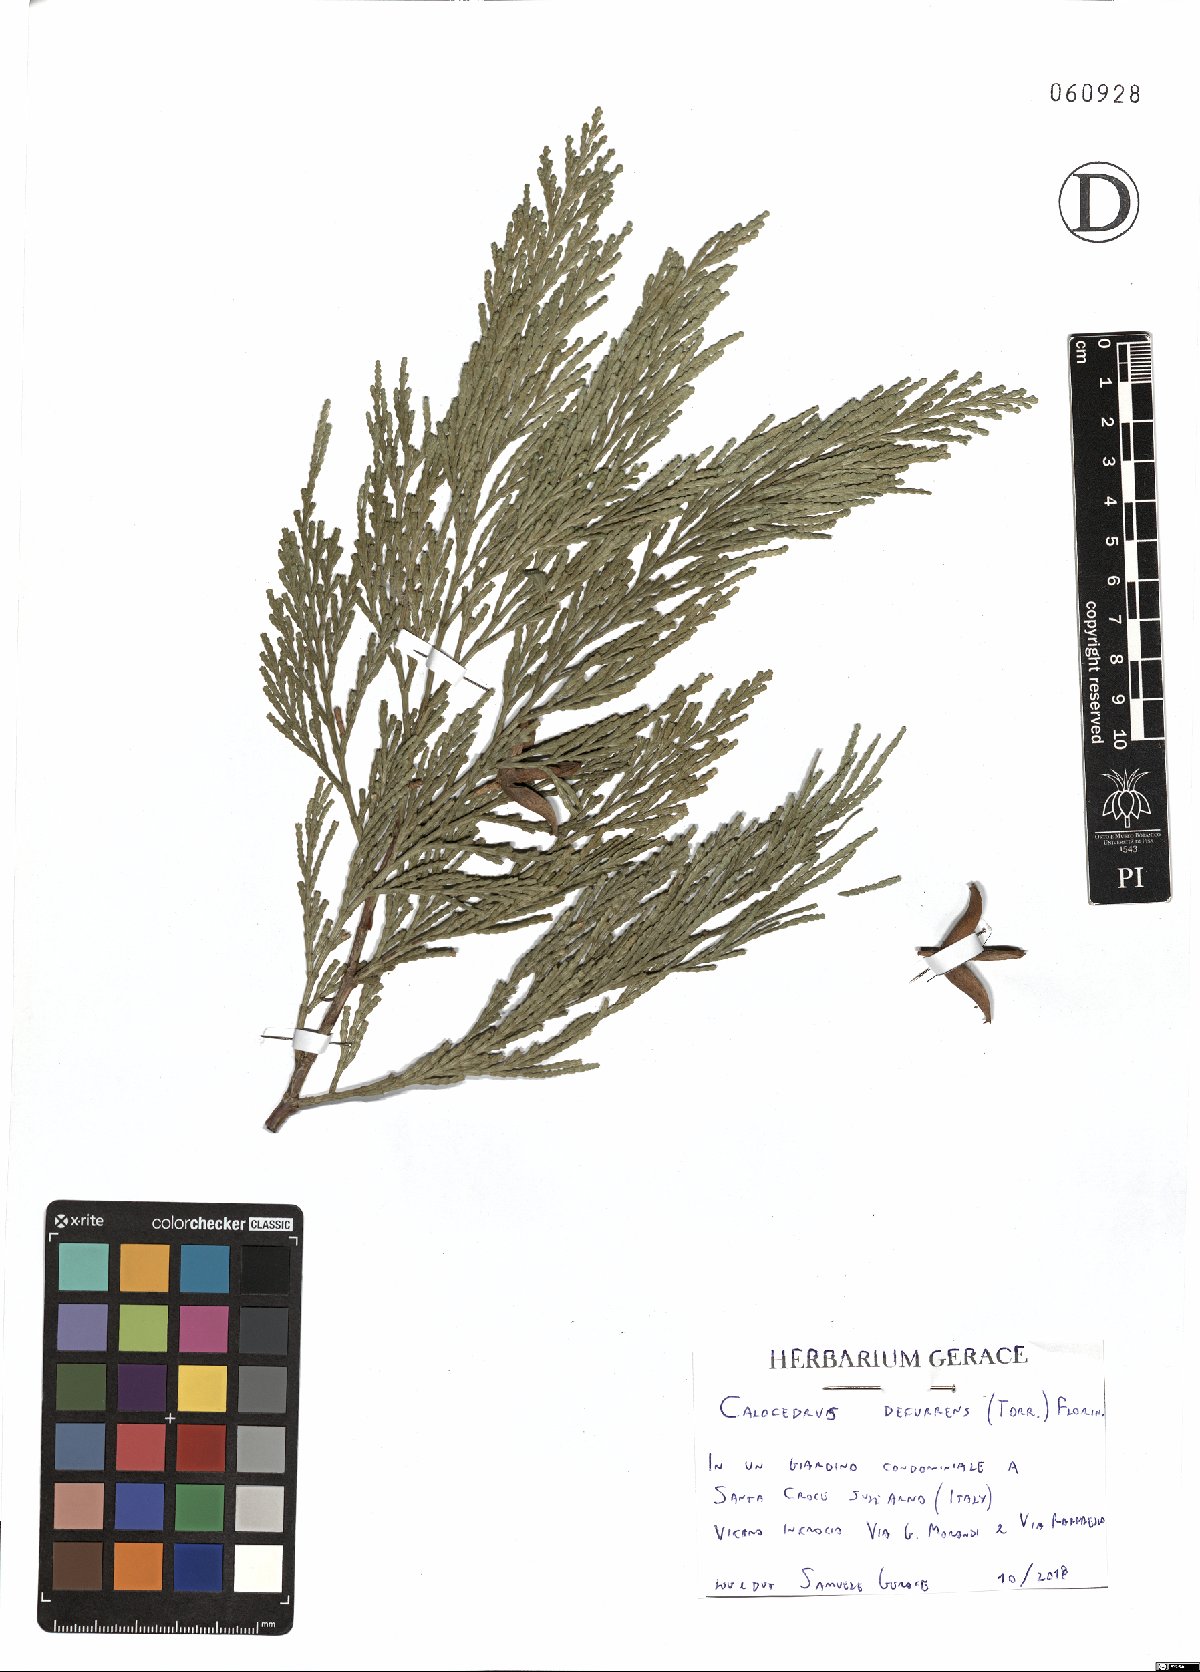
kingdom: Plantae
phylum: Tracheophyta
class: Pinopsida
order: Pinales
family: Cupressaceae
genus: Calocedrus
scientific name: Calocedrus decurrens
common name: Californian incense-cedar
